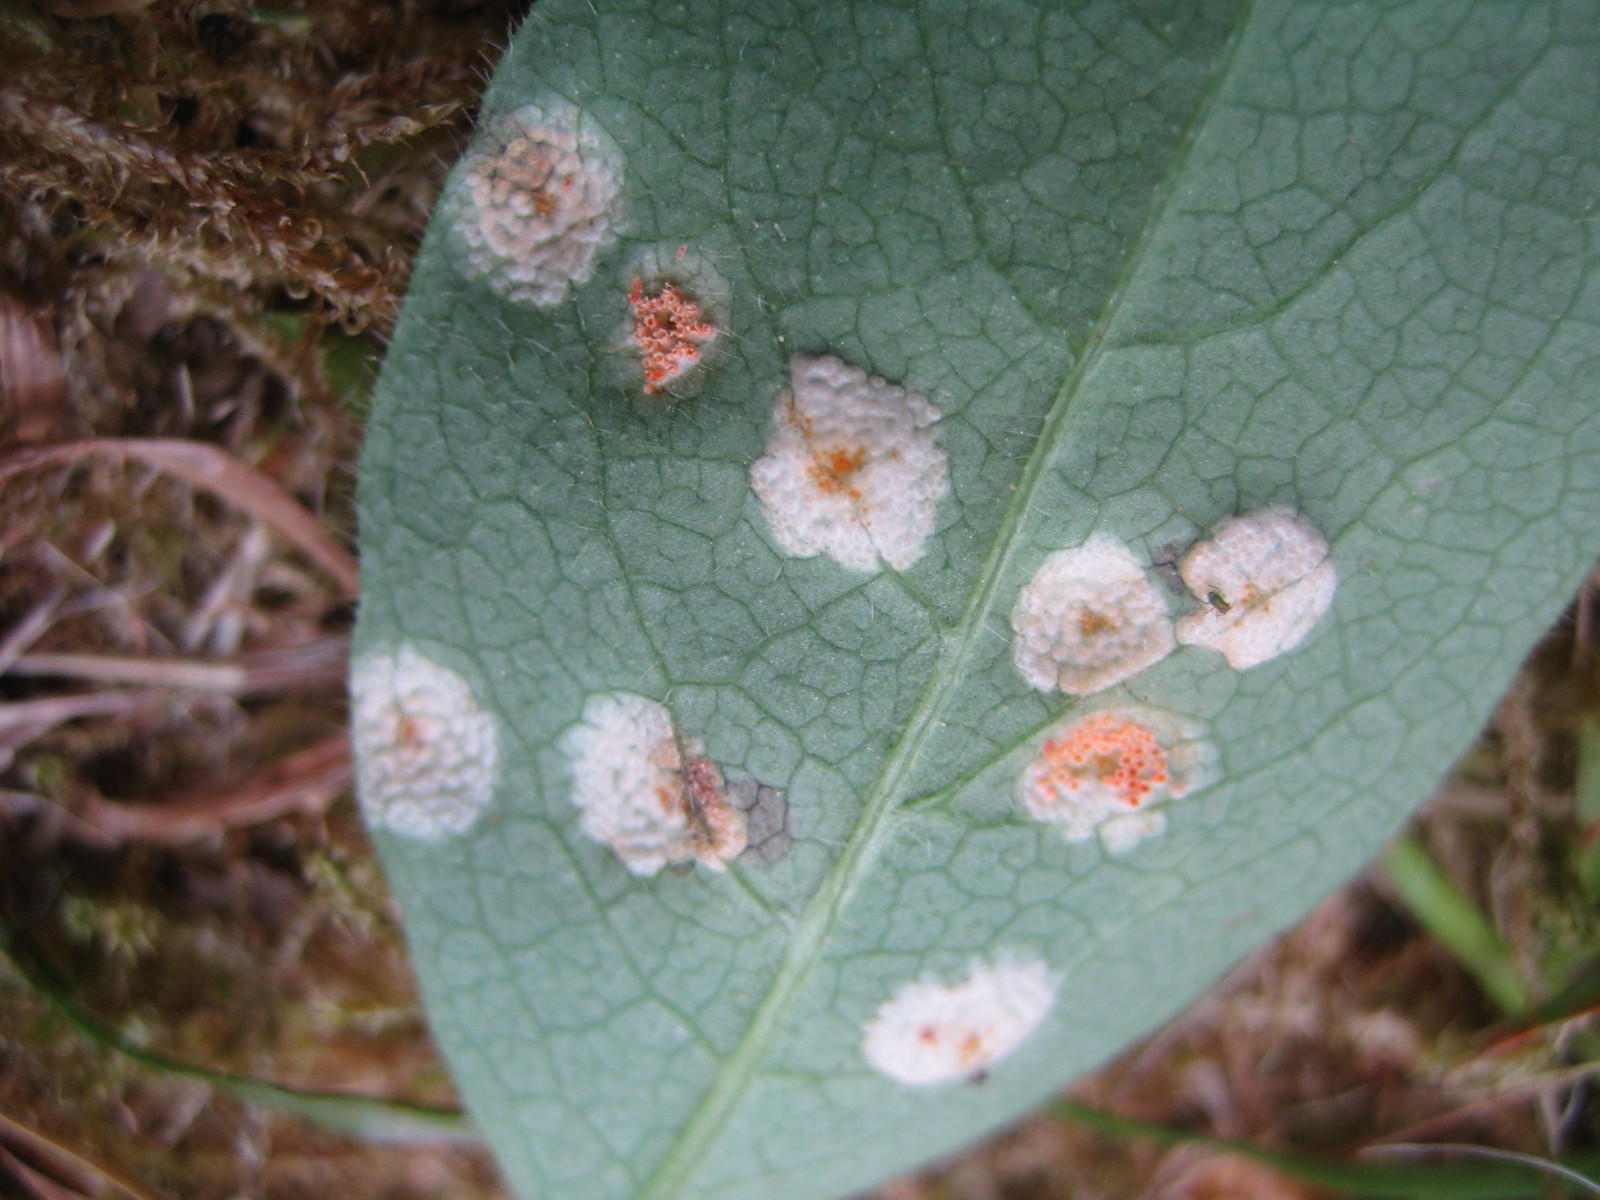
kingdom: Fungi
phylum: Basidiomycota
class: Pucciniomycetes
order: Pucciniales
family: Pucciniaceae
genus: Puccinia
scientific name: Puccinia festucae
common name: gedeblad-tvecellerust
